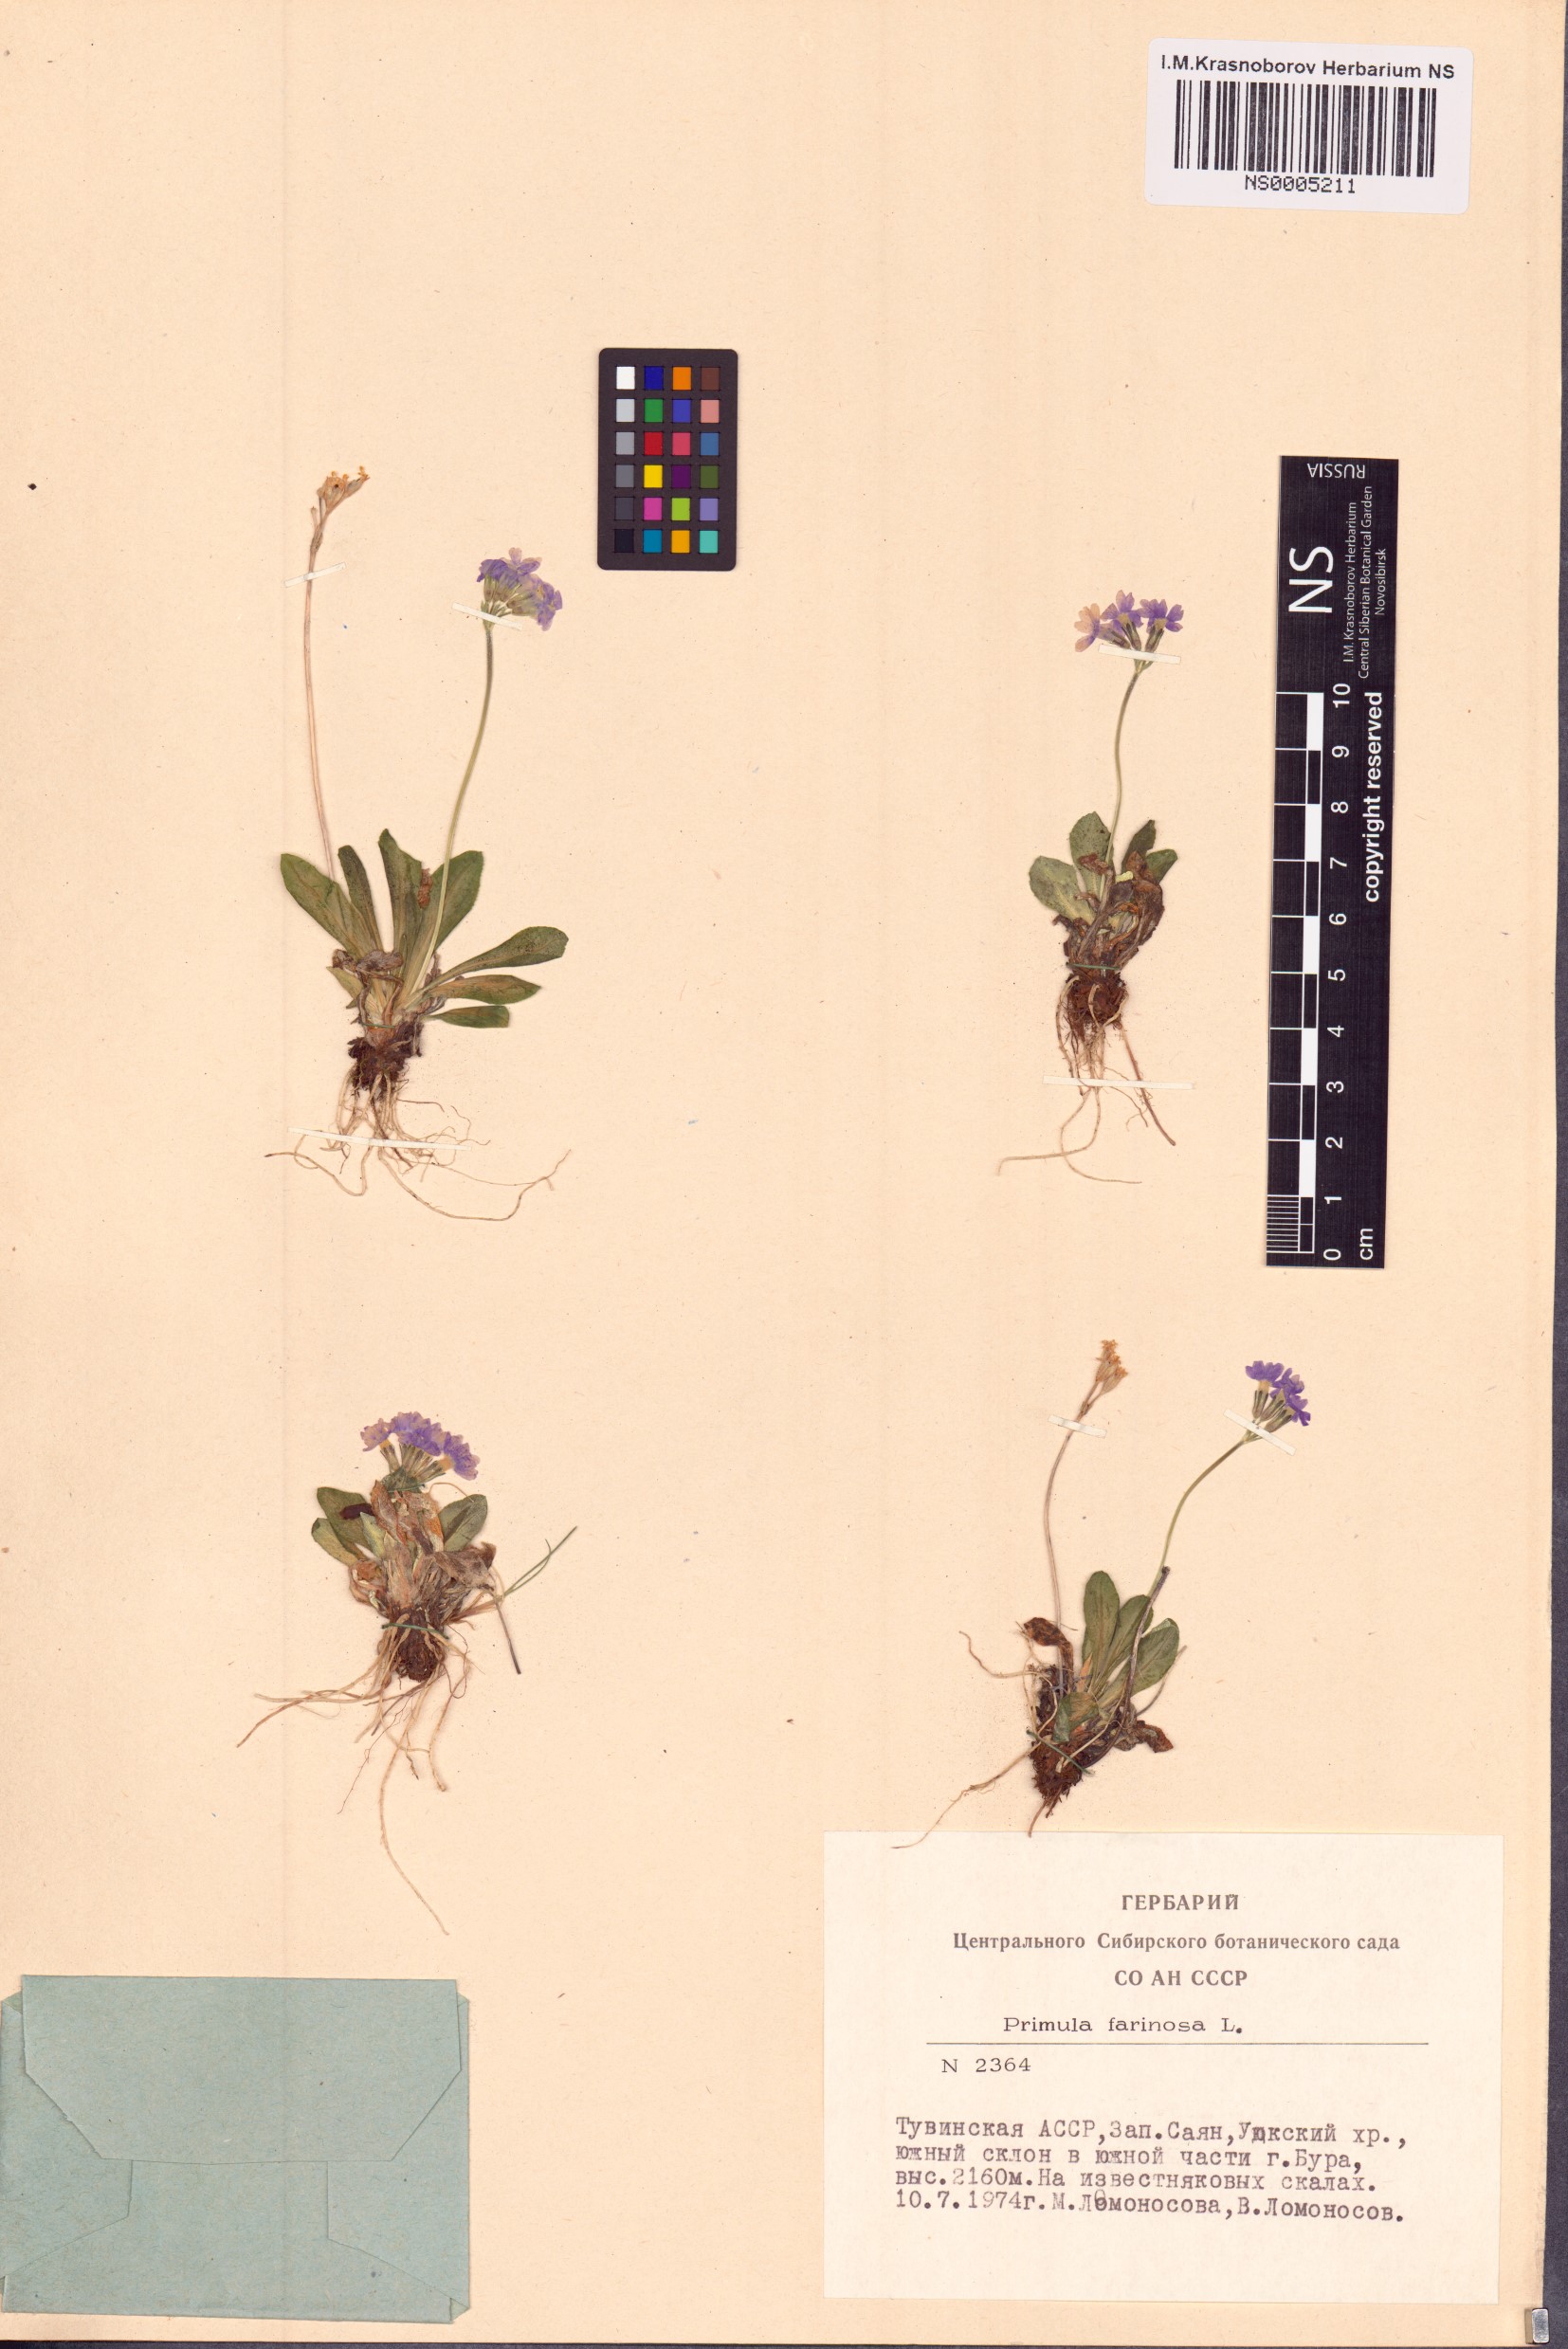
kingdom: Plantae
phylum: Tracheophyta
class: Magnoliopsida
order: Ericales
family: Primulaceae
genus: Primula
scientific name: Primula farinosa
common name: Bird's-eye primrose
